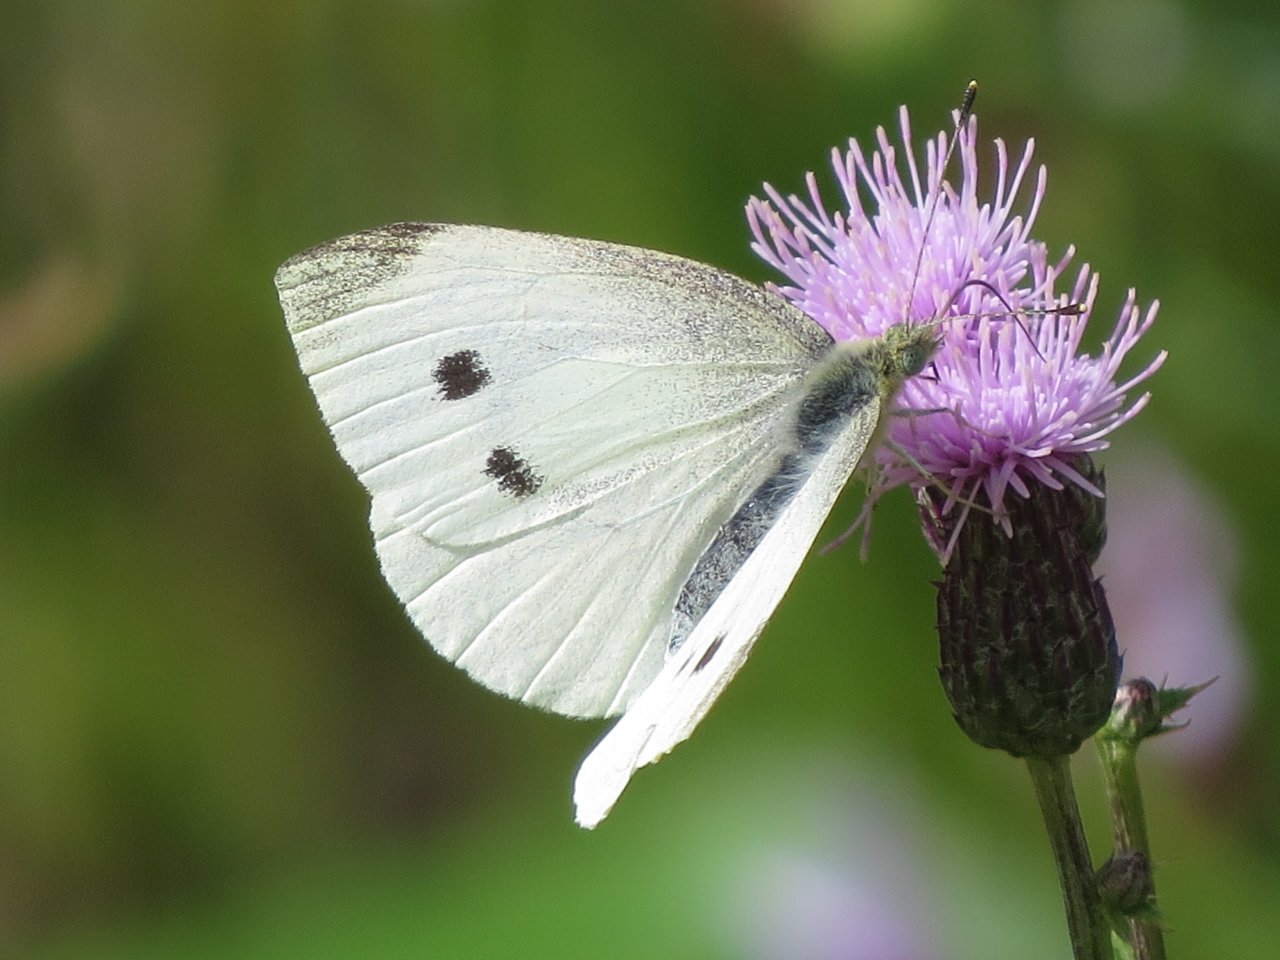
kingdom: Animalia
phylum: Arthropoda
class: Insecta
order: Lepidoptera
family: Pieridae
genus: Pieris
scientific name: Pieris rapae
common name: Cabbage White
